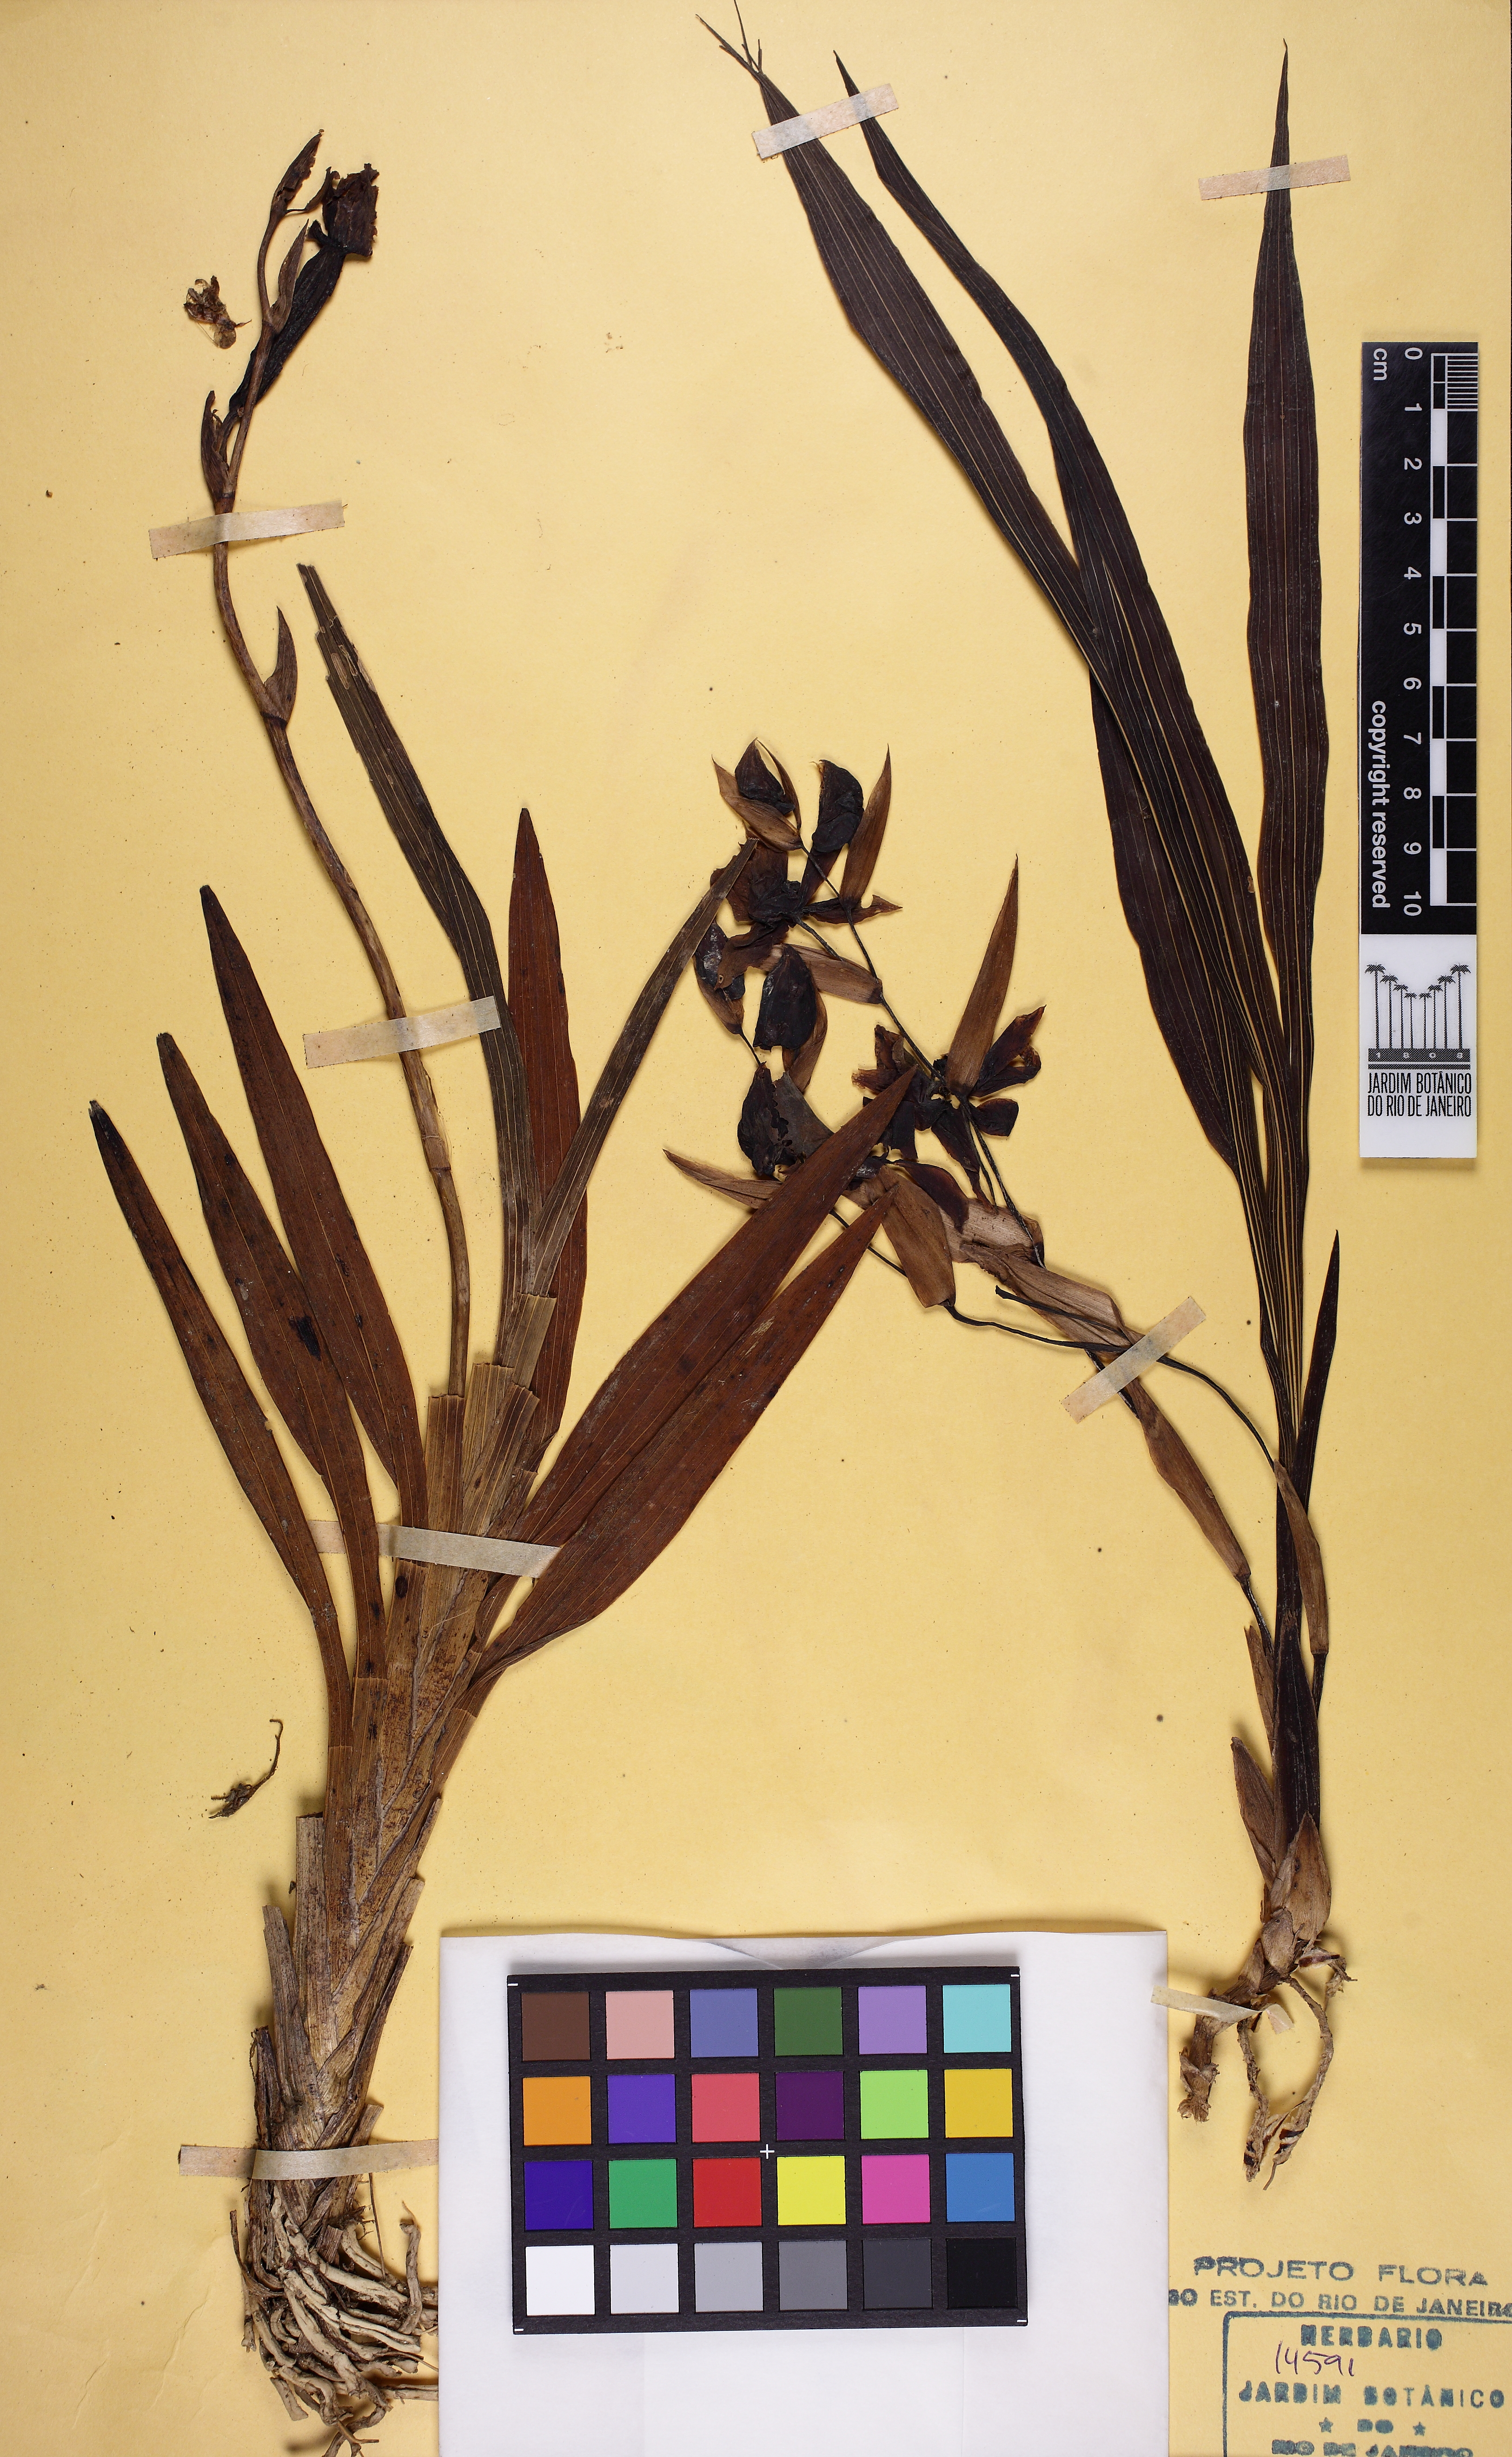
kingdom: Plantae
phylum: Tracheophyta
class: Liliopsida
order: Asparagales
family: Orchidaceae
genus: Zygopetalum
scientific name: Zygopetalum maxillare
